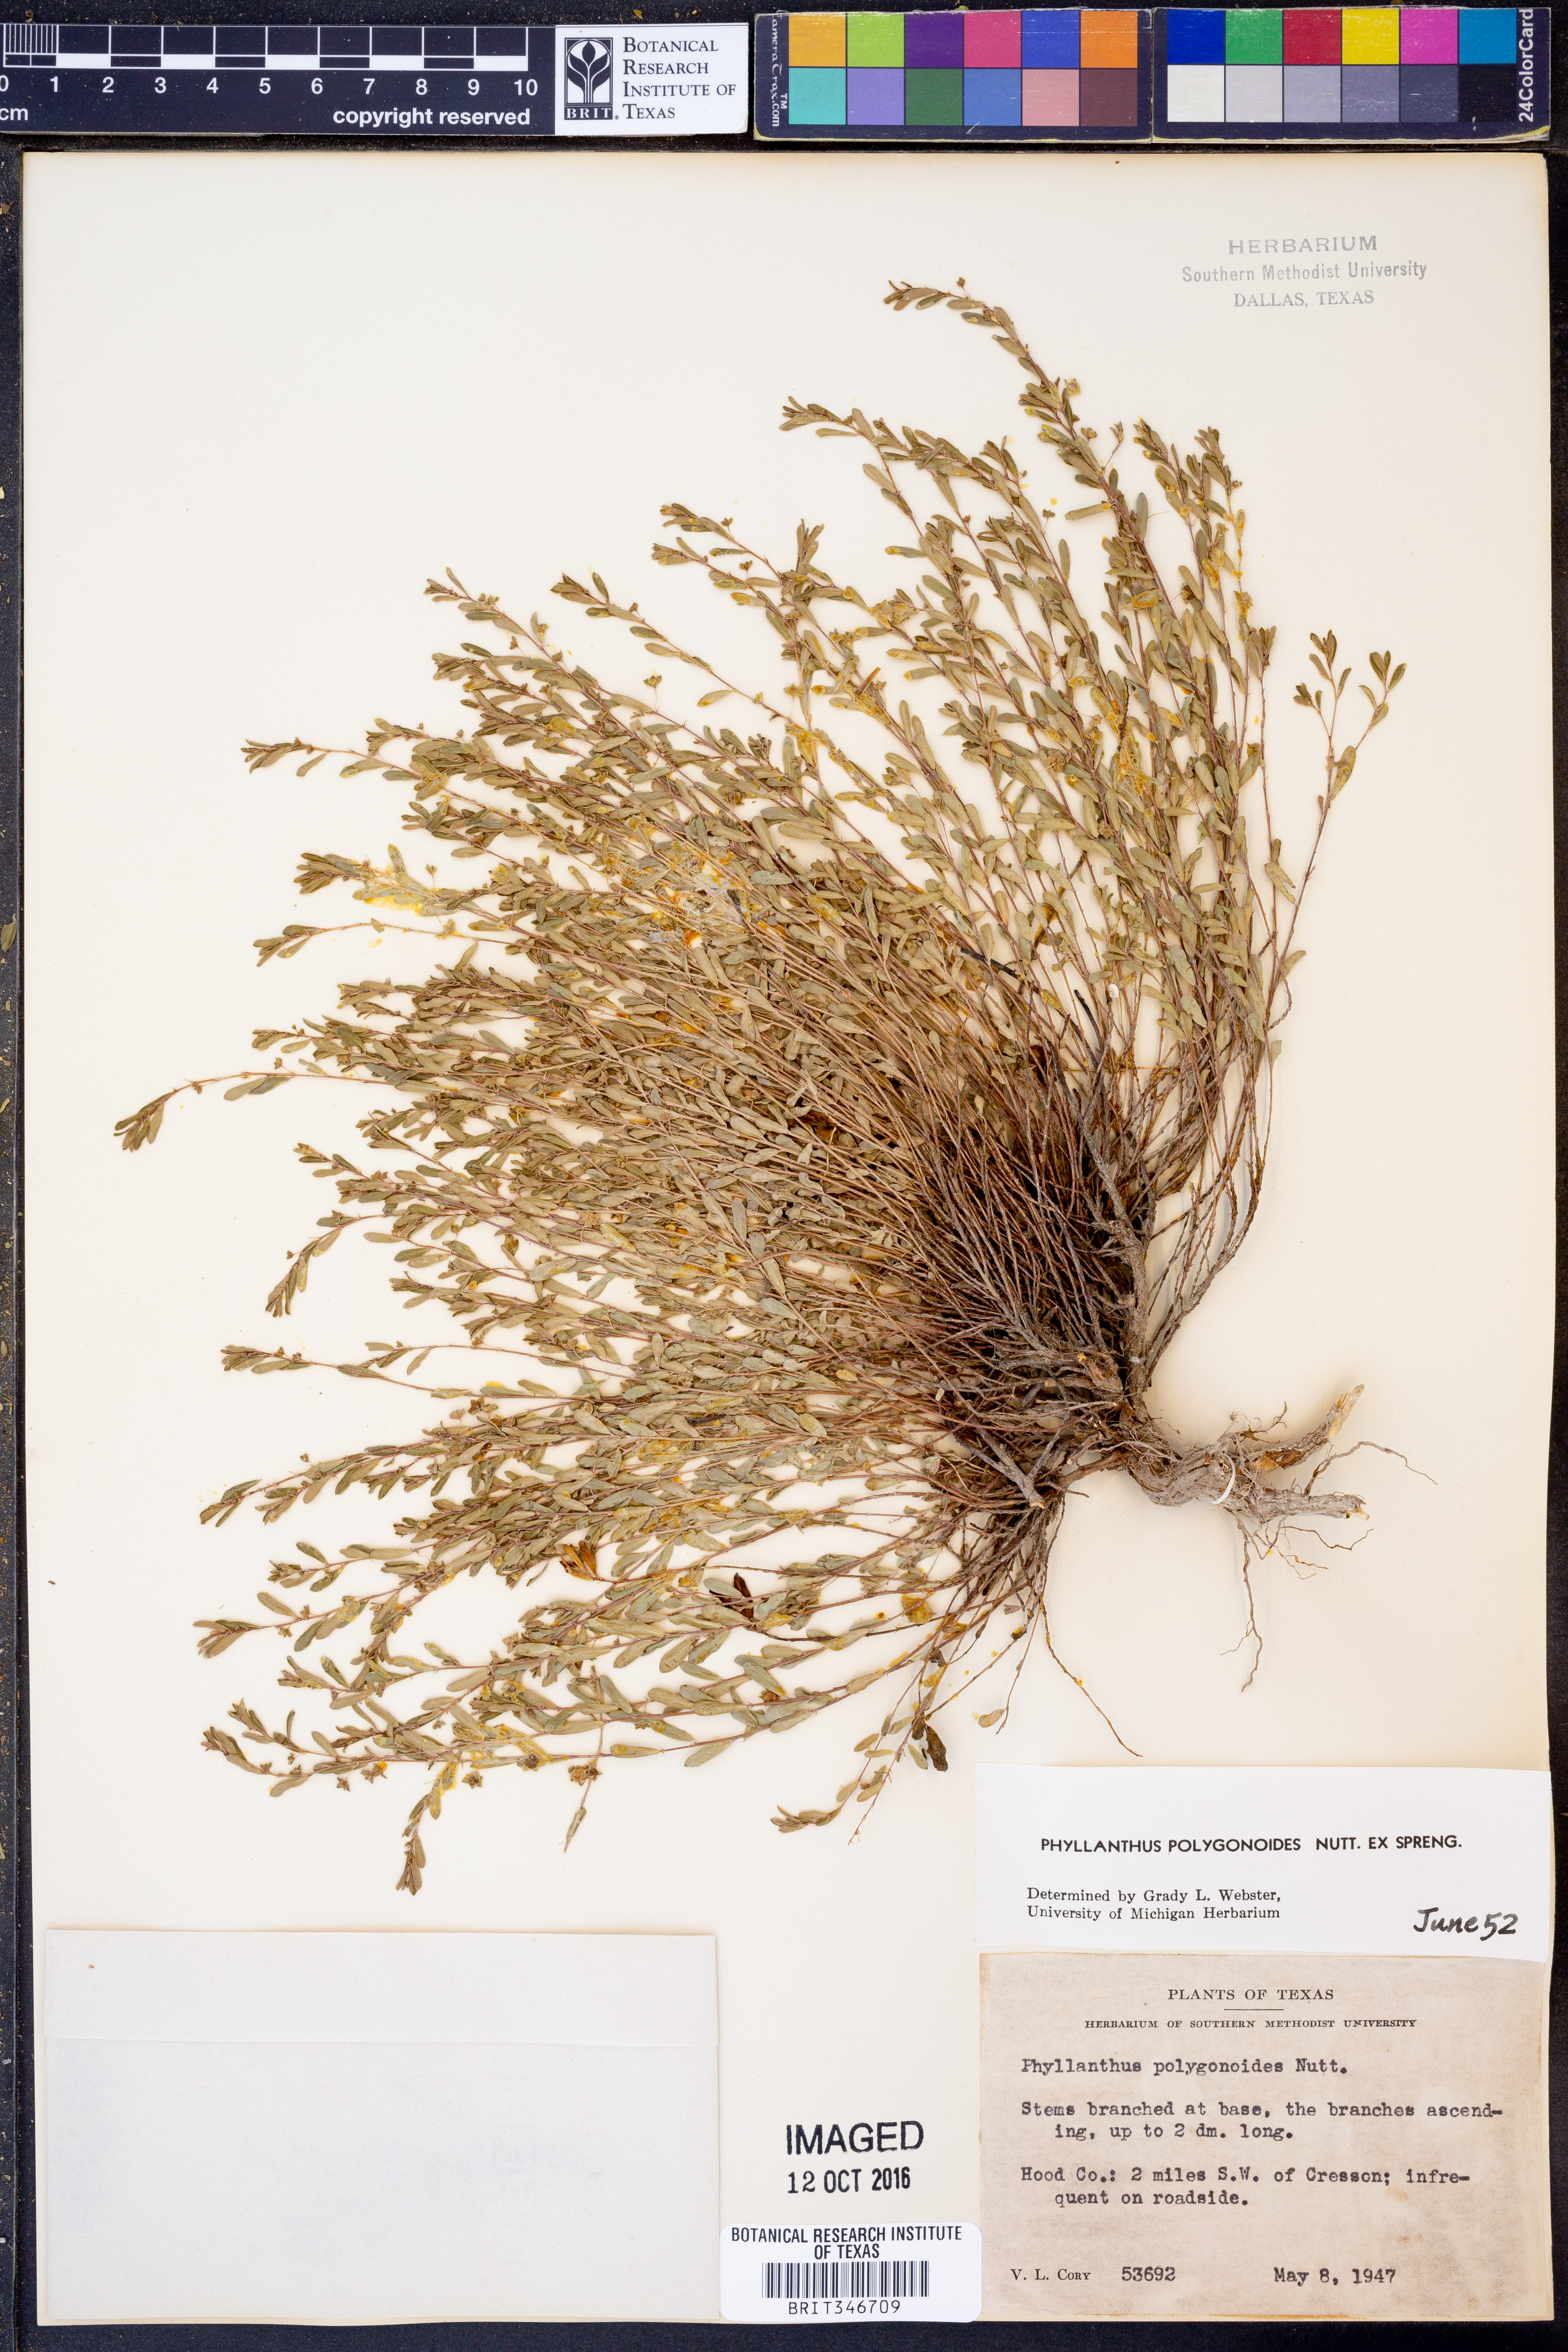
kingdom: Plantae
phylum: Tracheophyta
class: Magnoliopsida
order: Malpighiales
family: Phyllanthaceae
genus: Phyllanthus
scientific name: Phyllanthus polygonoides
